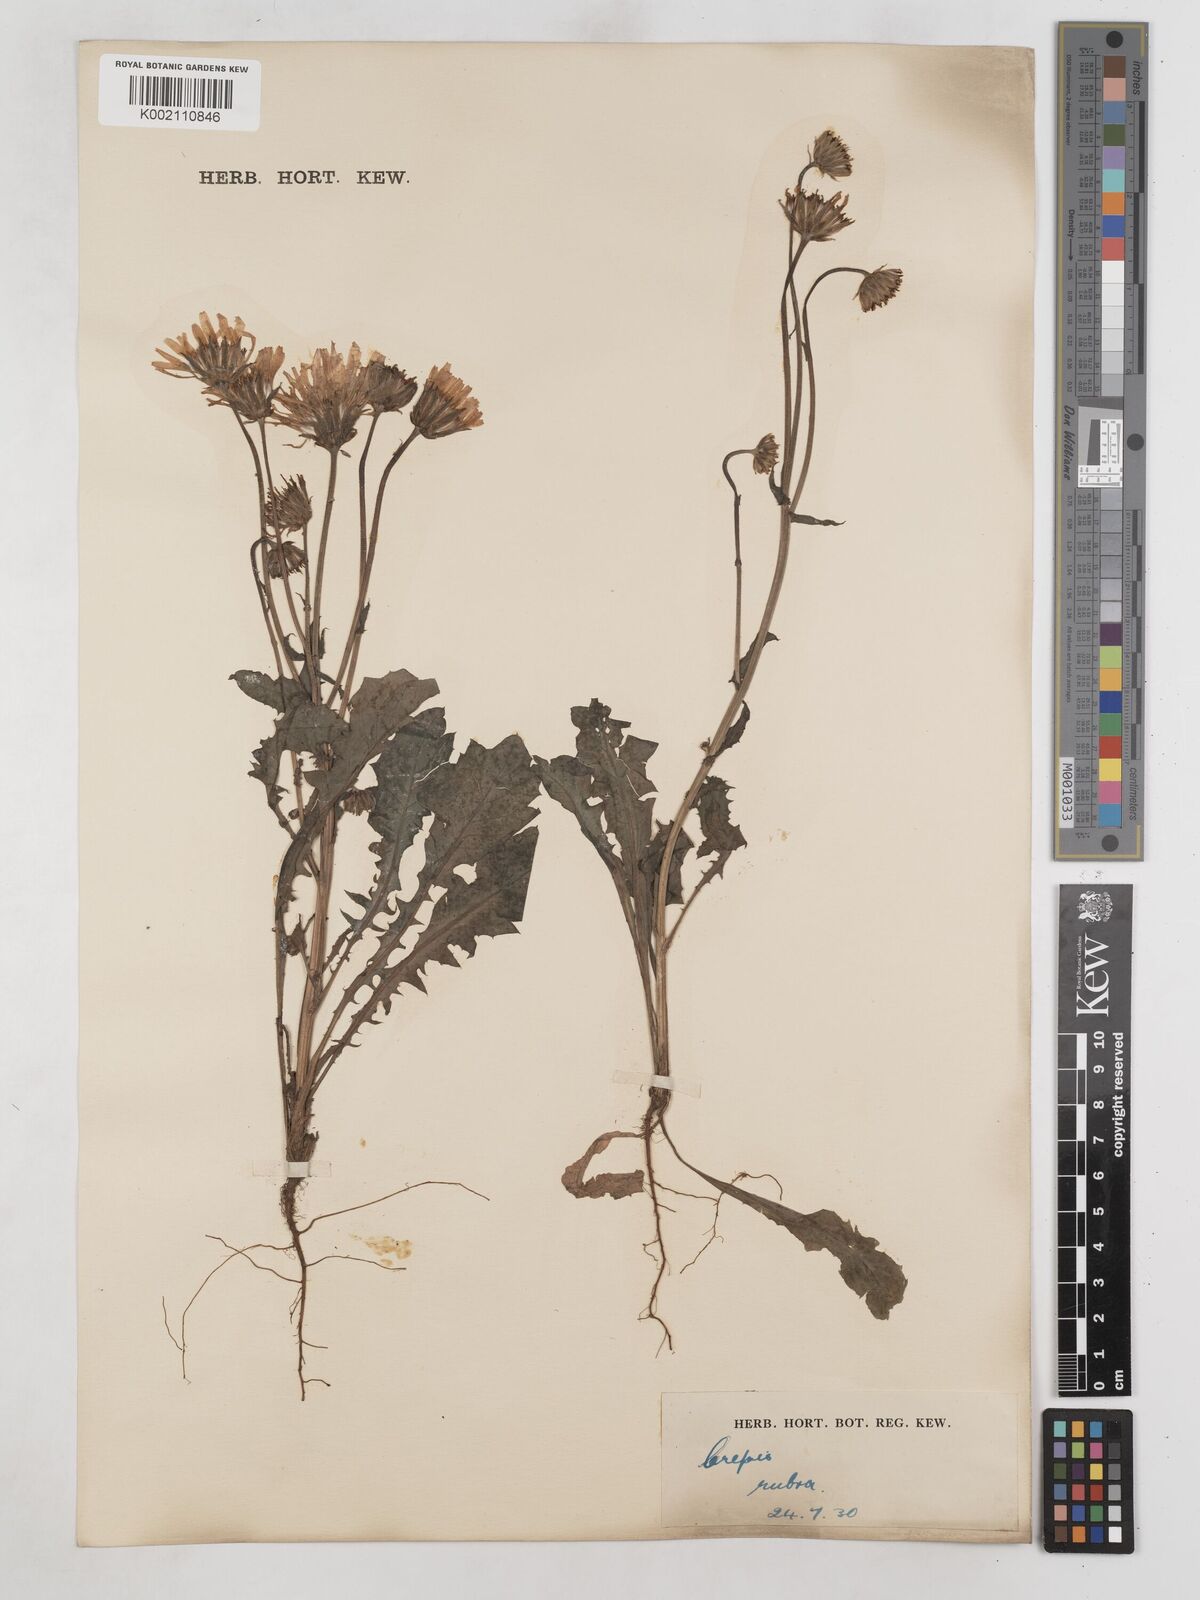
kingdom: Plantae
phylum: Tracheophyta
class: Magnoliopsida
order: Asterales
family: Asteraceae
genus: Crepis
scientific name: Crepis rubra
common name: Pink hawk's-beard
